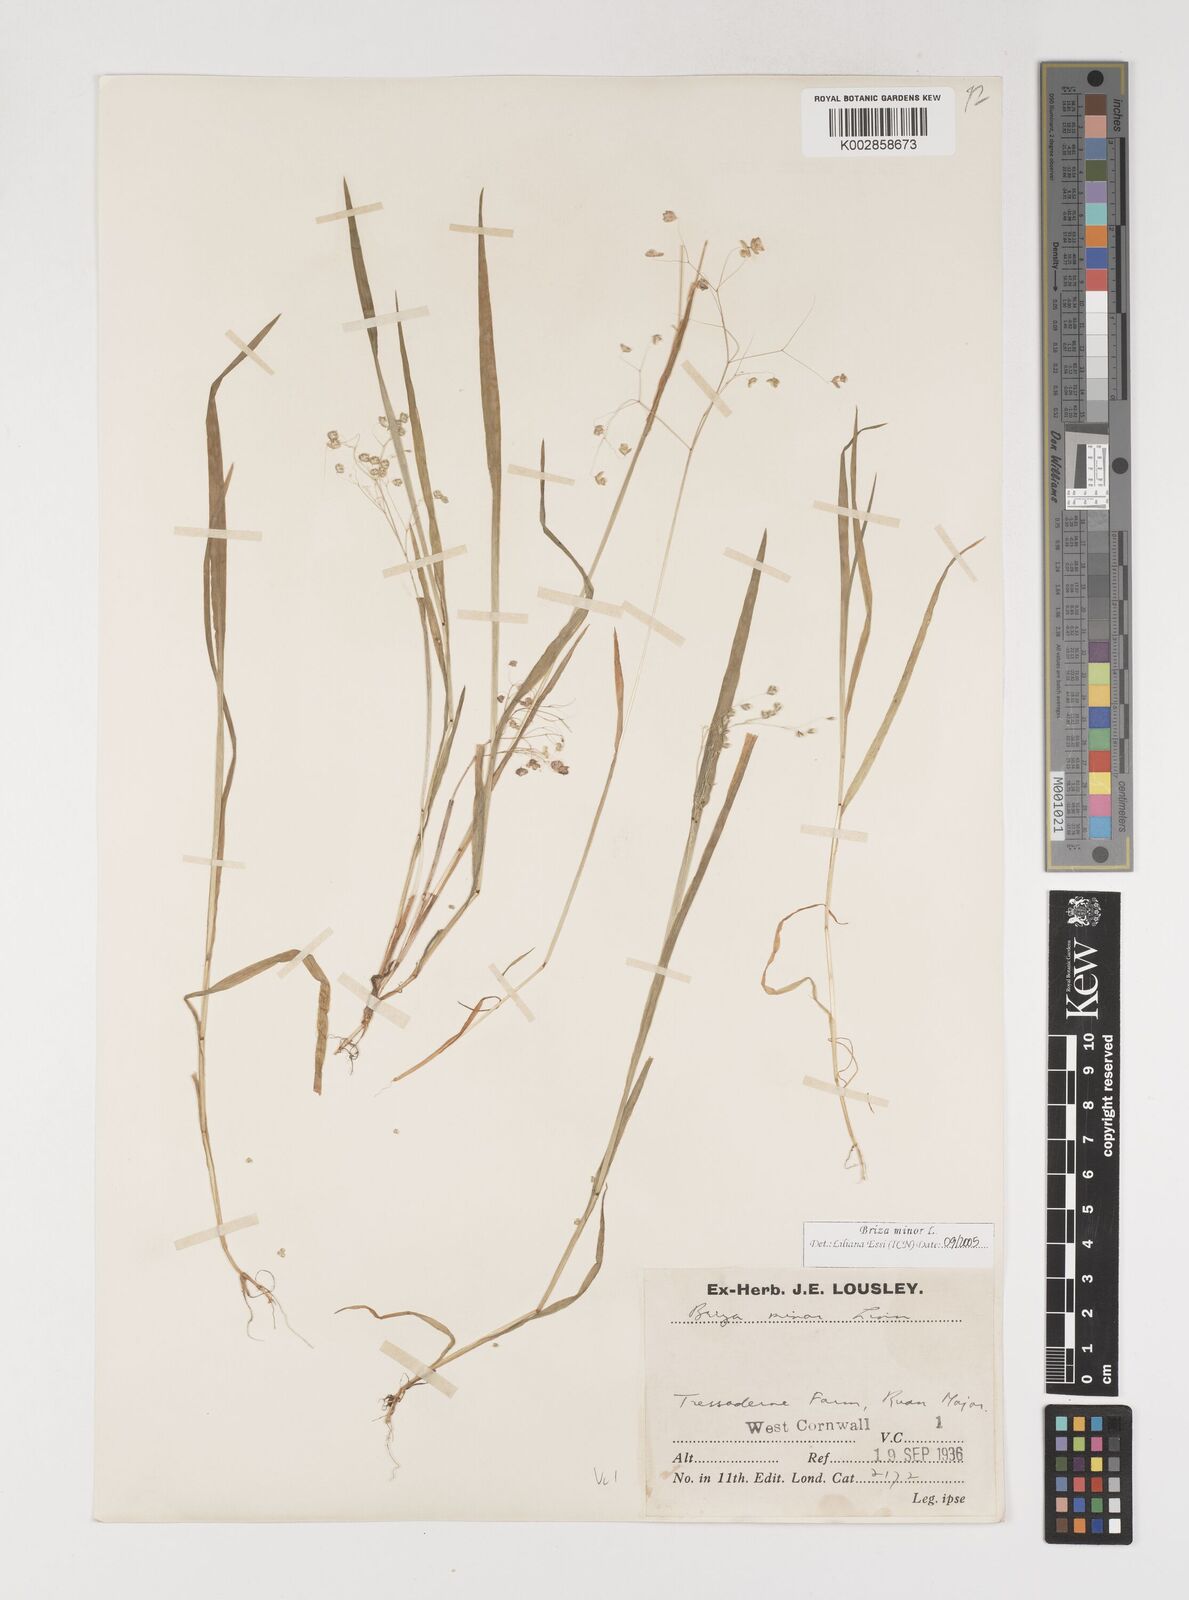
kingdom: Plantae
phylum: Tracheophyta
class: Liliopsida
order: Poales
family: Poaceae
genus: Briza
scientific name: Briza minor
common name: Lesser quaking-grass
